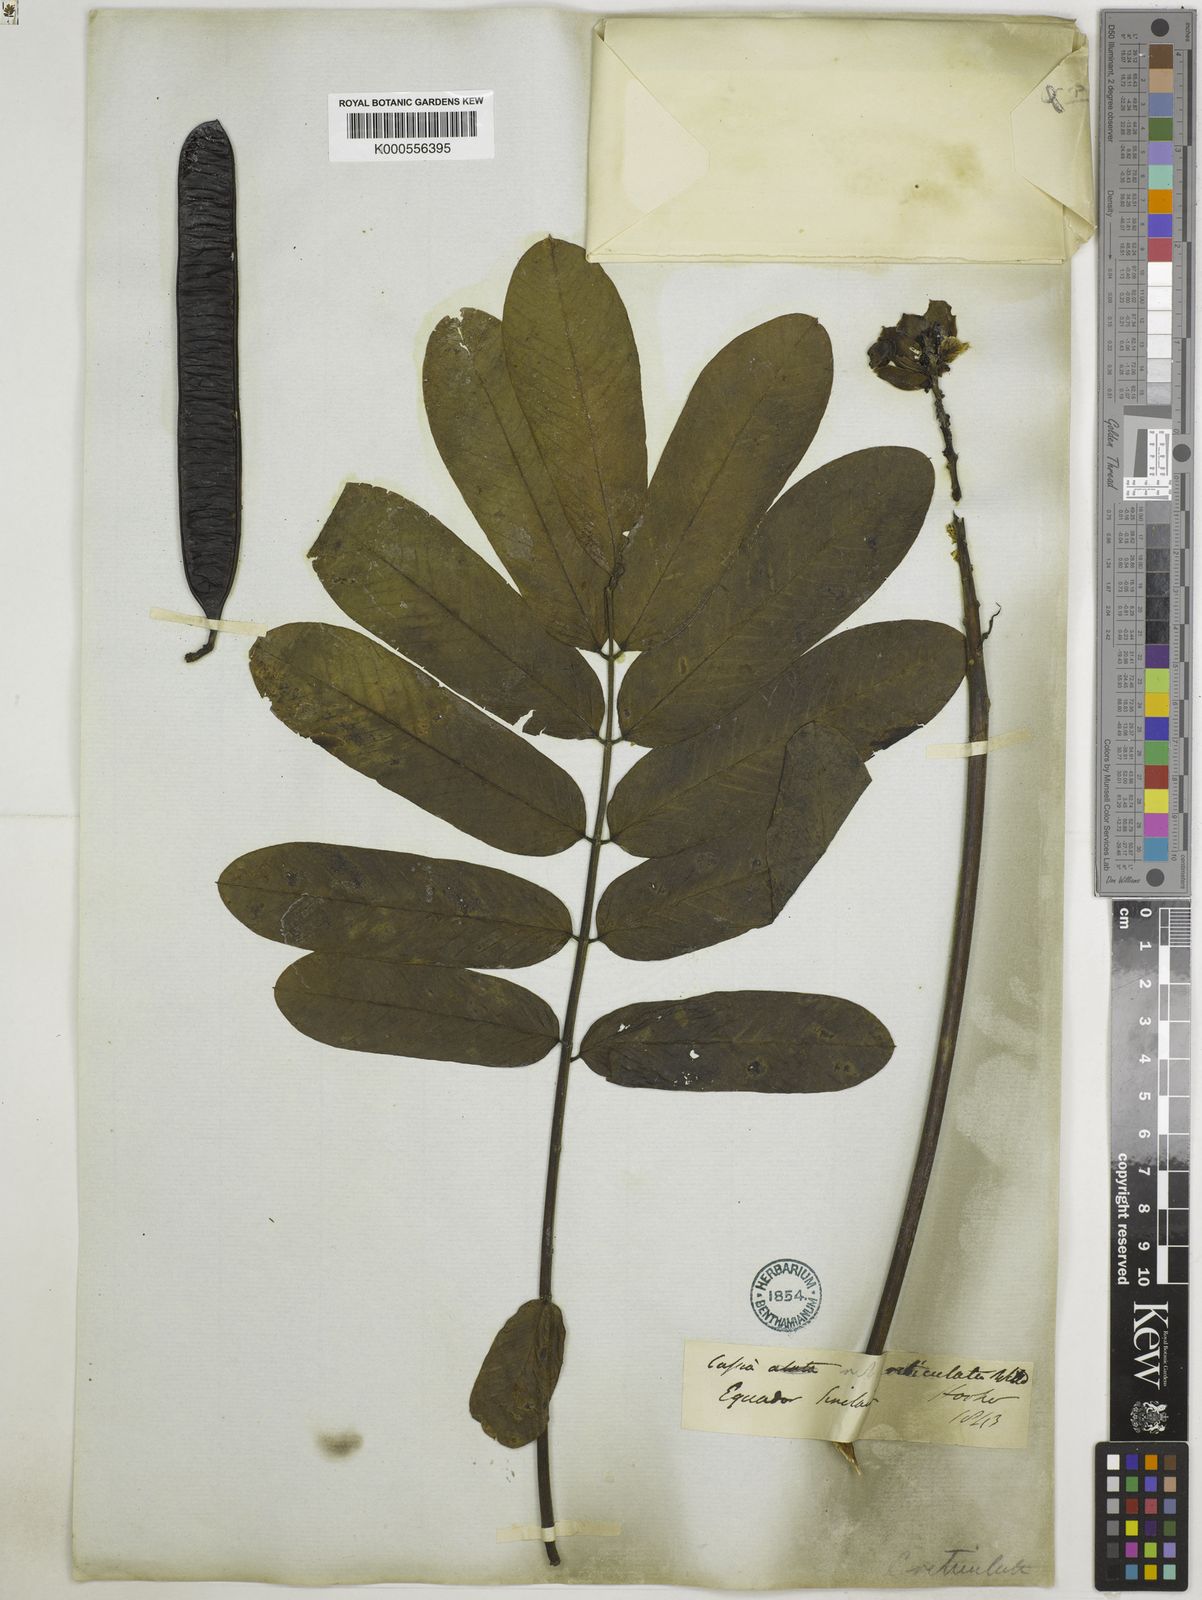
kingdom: Plantae
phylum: Tracheophyta
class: Magnoliopsida
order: Fabales
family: Fabaceae
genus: Senna
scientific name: Senna reticulata
